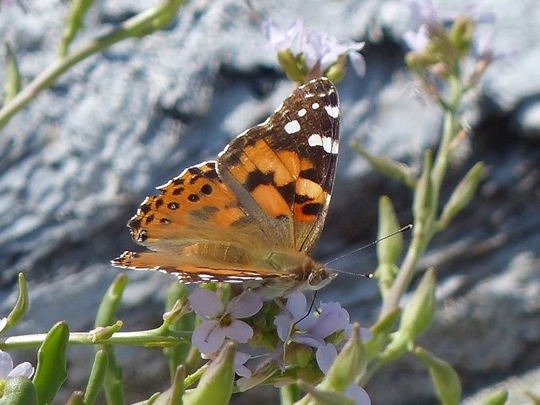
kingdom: Animalia
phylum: Arthropoda
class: Insecta
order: Lepidoptera
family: Nymphalidae
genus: Vanessa
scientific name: Vanessa cardui
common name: Painted Lady
